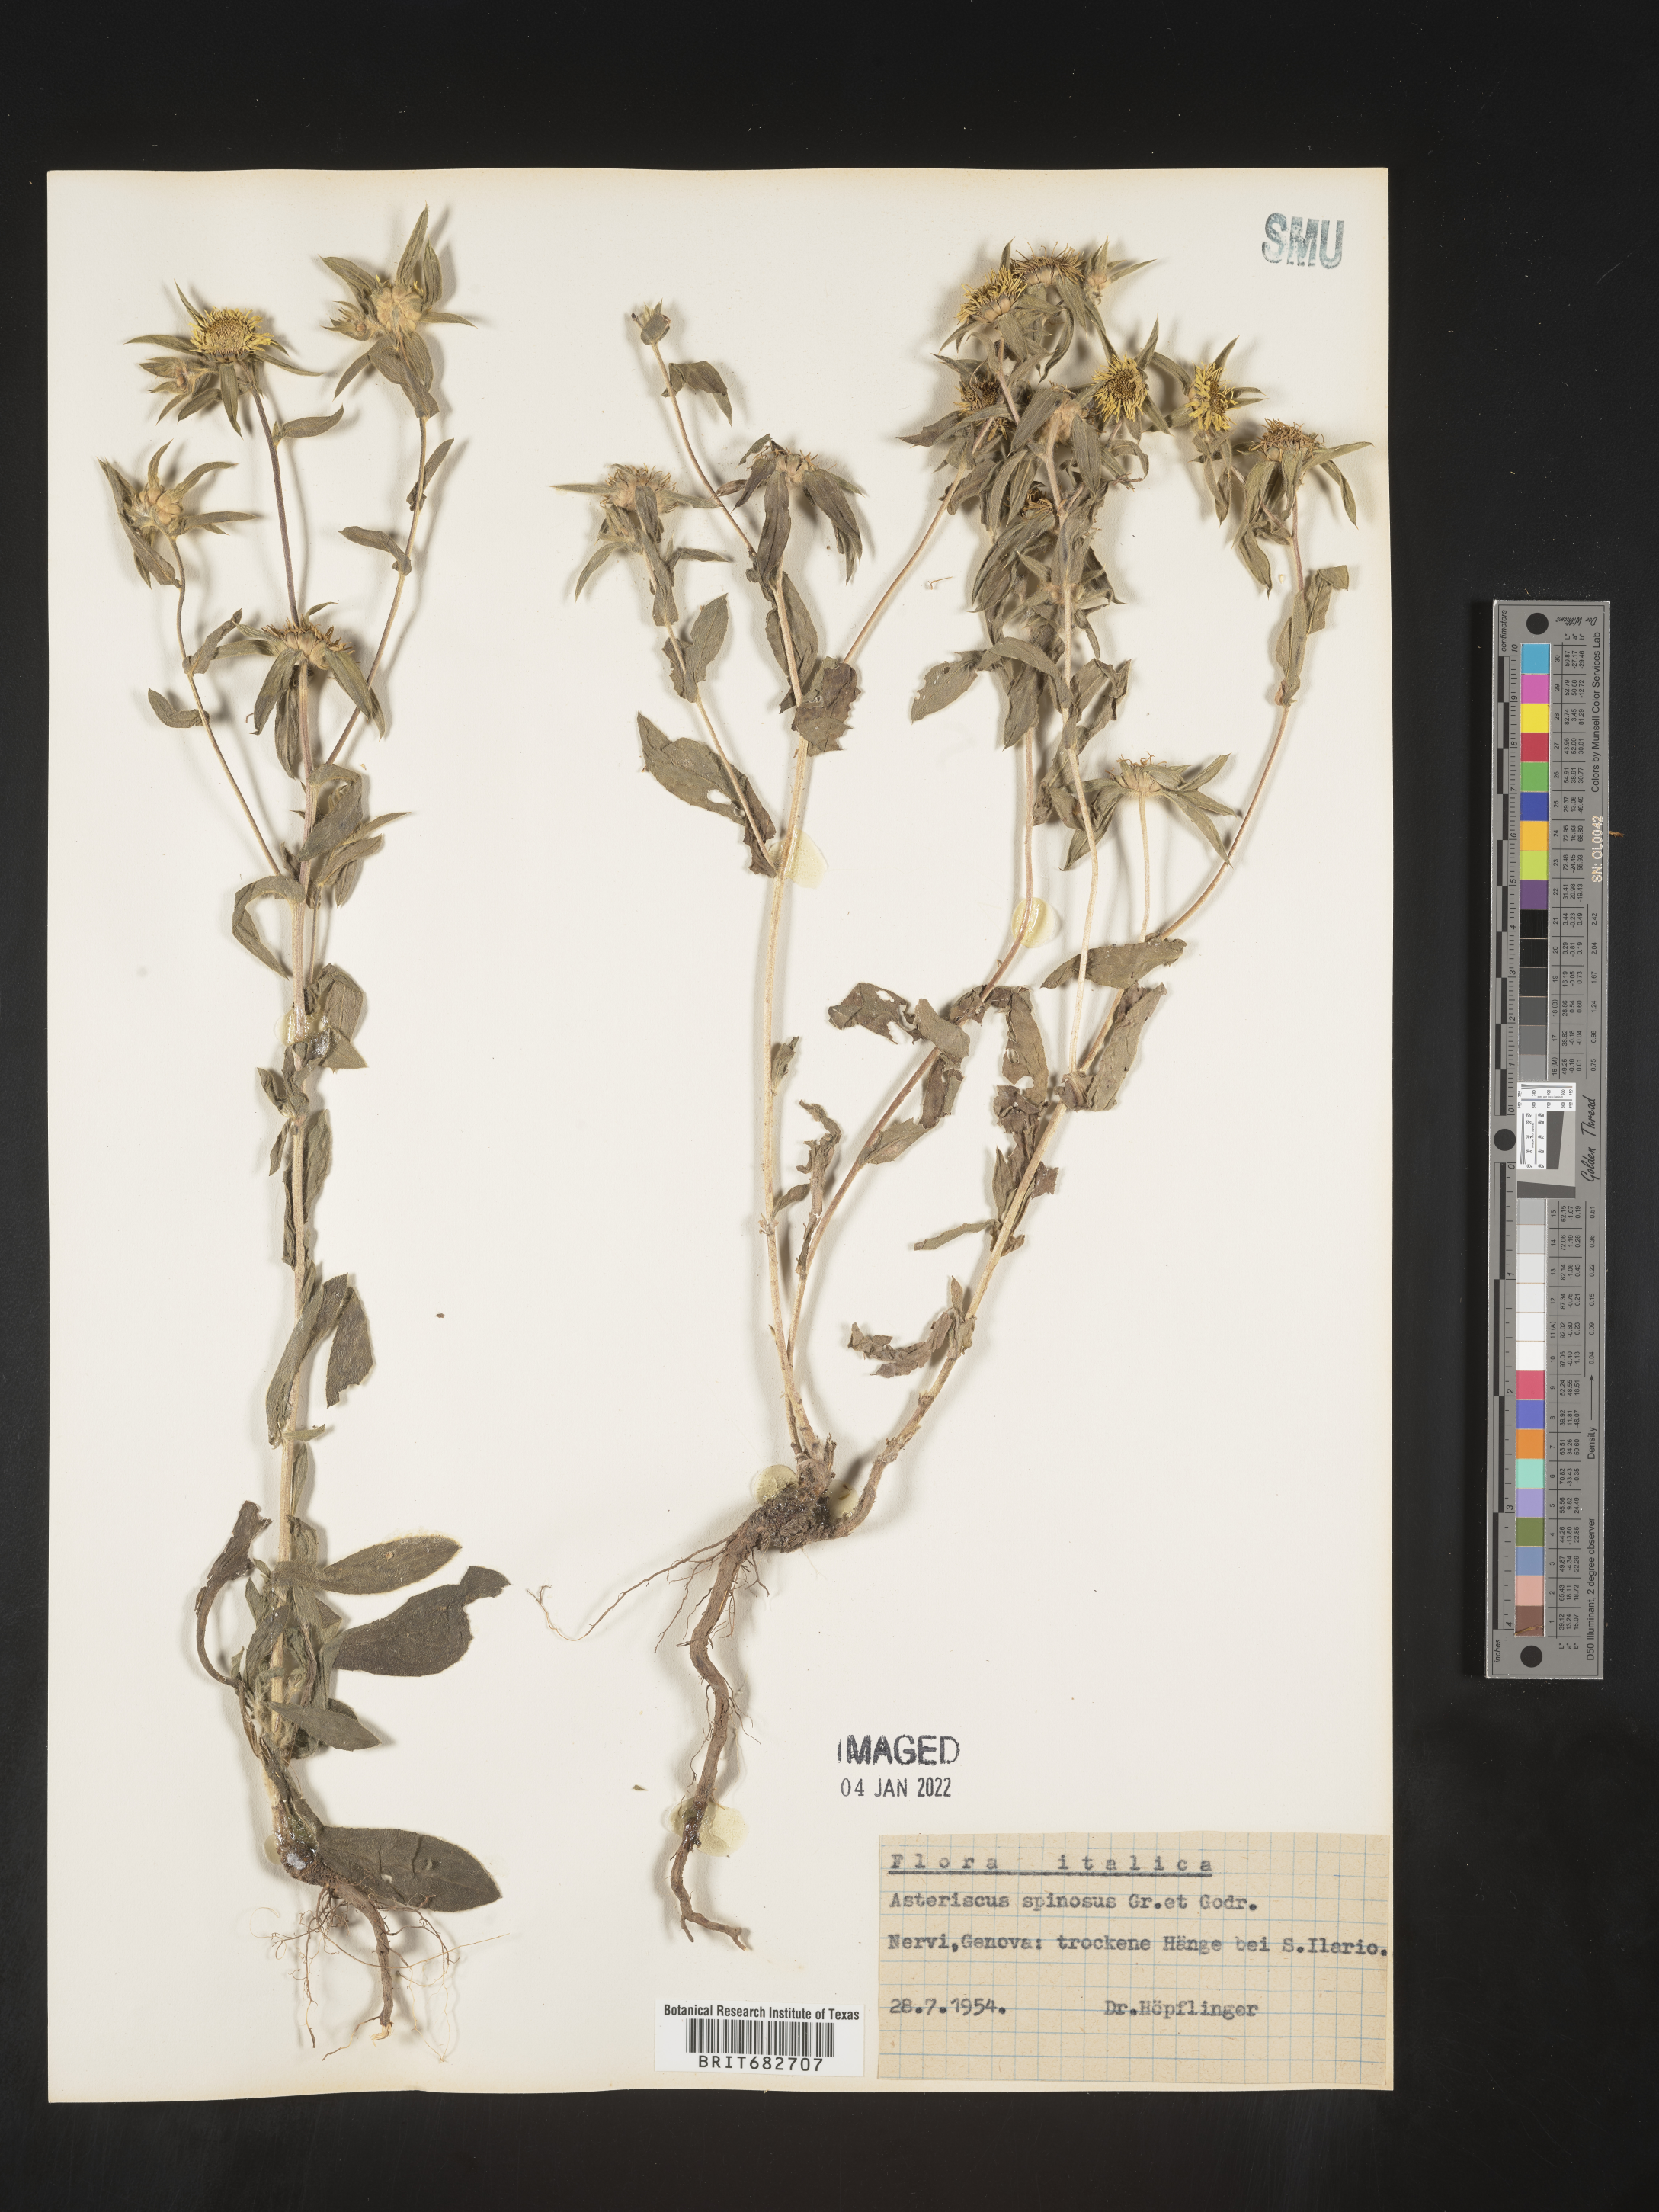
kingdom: Plantae
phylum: Tracheophyta
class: Magnoliopsida
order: Asterales
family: Asteraceae
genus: Asteriscus
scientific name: Asteriscus
